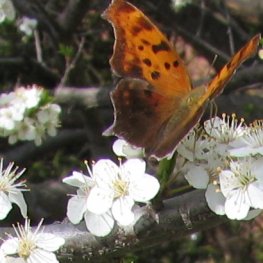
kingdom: Animalia
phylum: Arthropoda
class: Insecta
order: Lepidoptera
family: Nymphalidae
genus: Vanessa
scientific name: Vanessa atalanta
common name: Red Admiral
